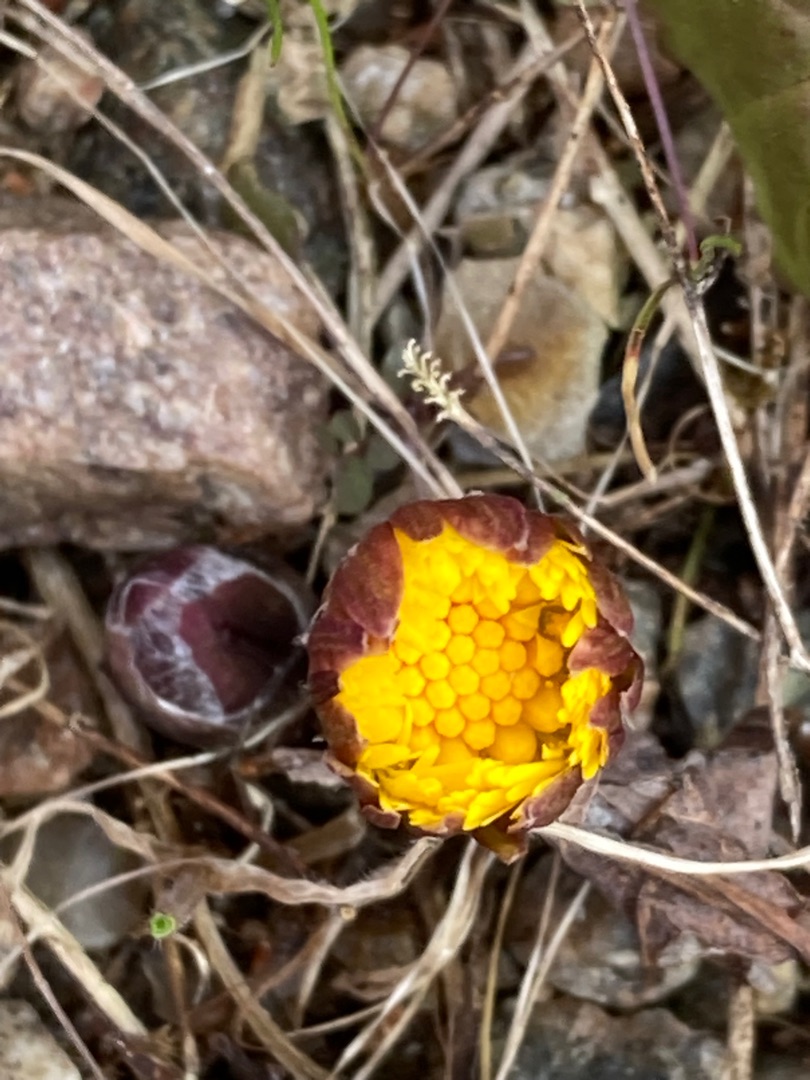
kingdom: Plantae
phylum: Tracheophyta
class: Magnoliopsida
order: Asterales
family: Asteraceae
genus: Tussilago
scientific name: Tussilago farfara
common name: Følfod
